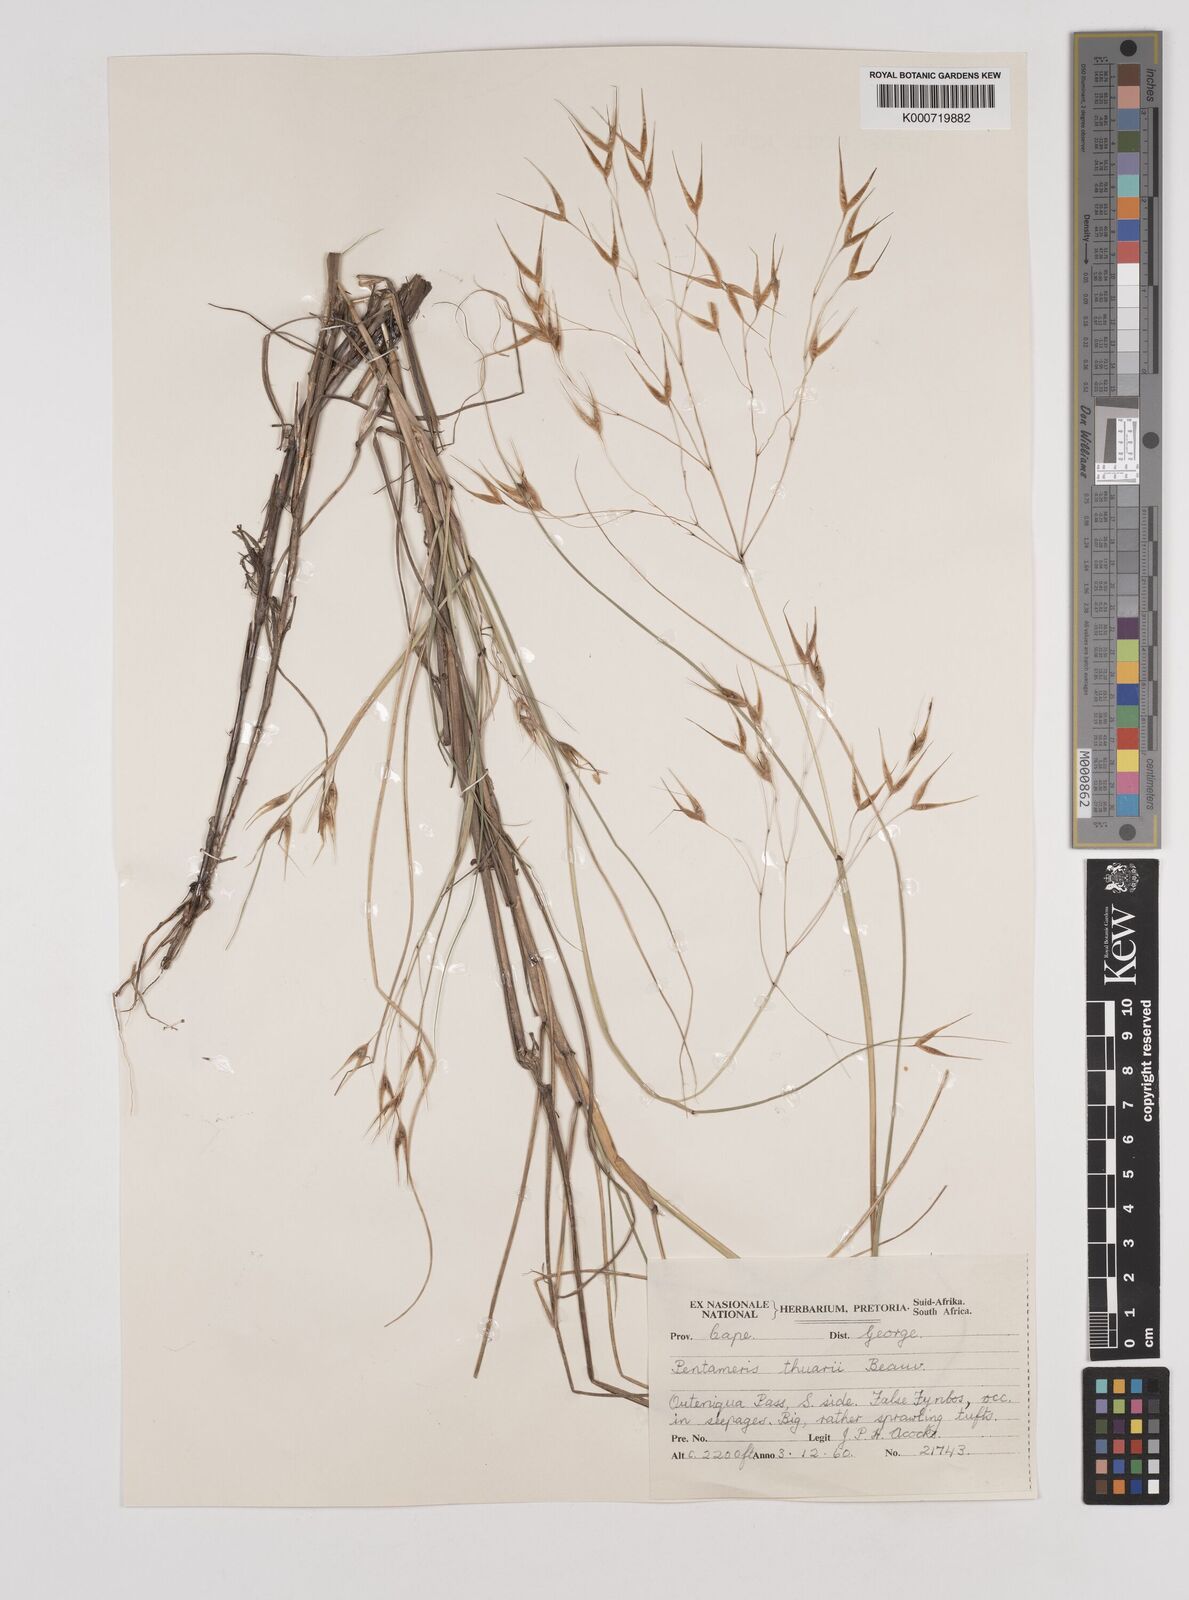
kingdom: Plantae
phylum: Tracheophyta
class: Liliopsida
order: Poales
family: Poaceae
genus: Pentameris
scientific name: Pentameris thuarii
